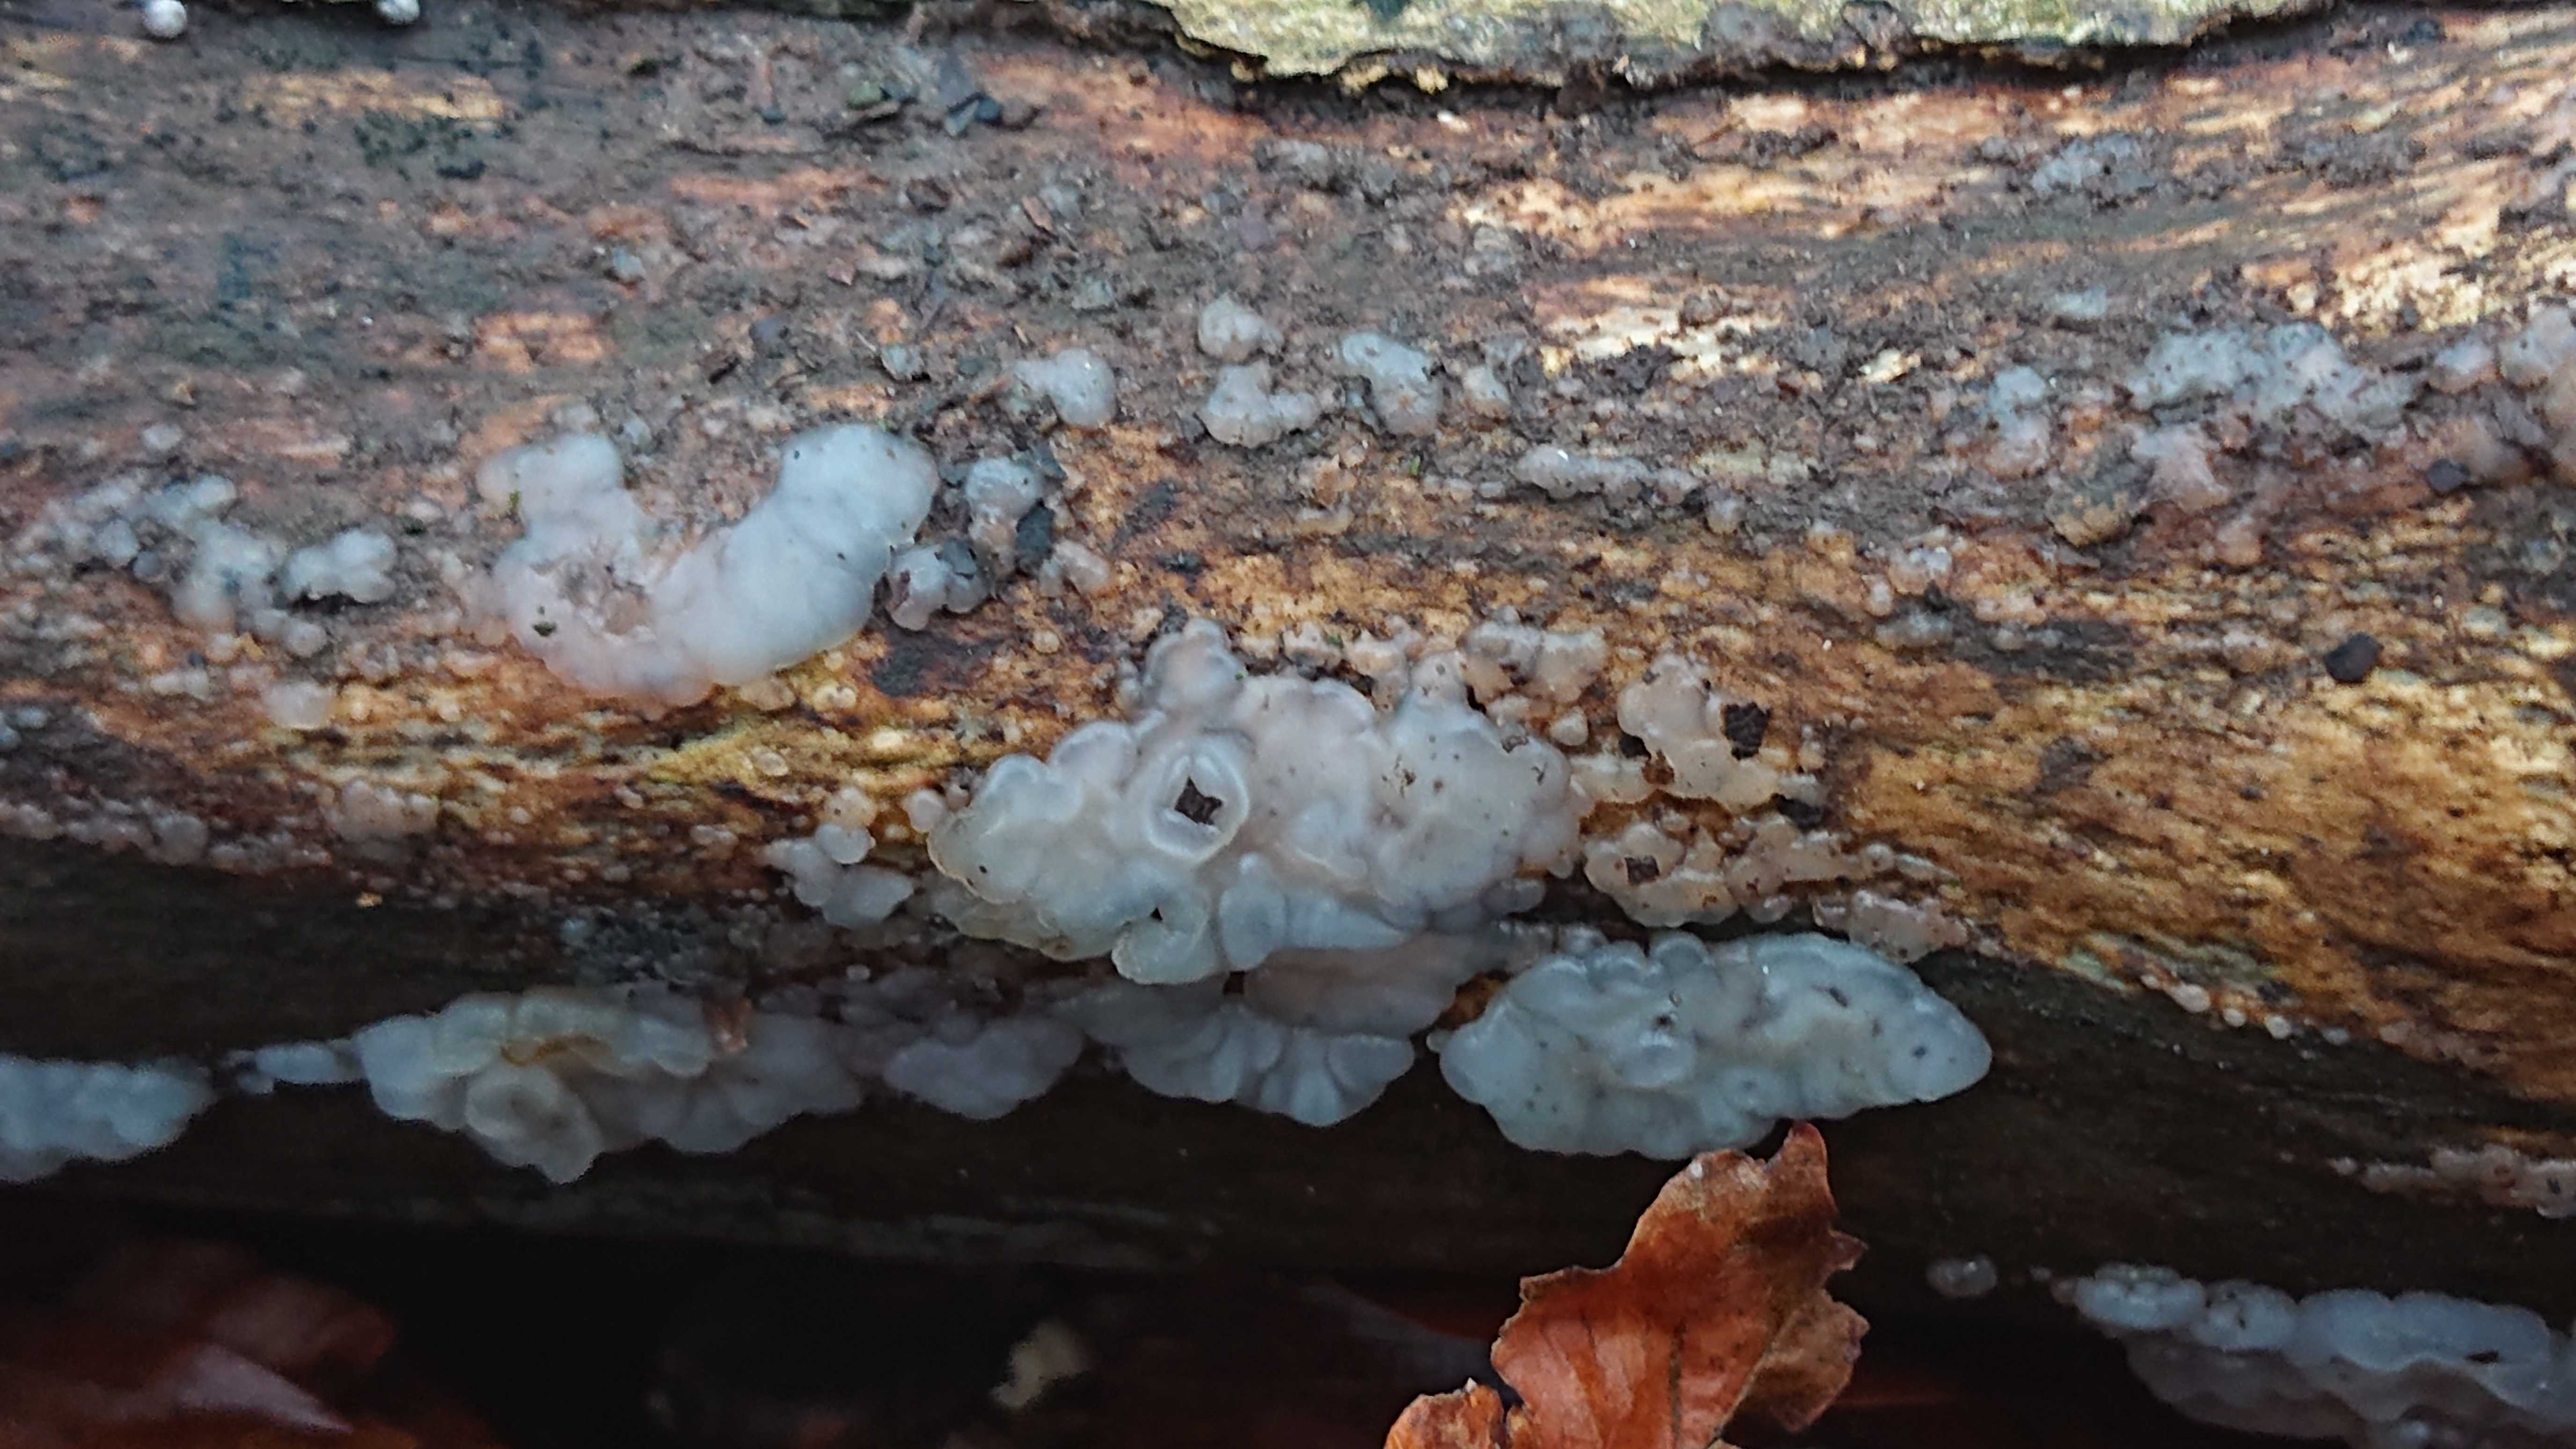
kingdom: Fungi
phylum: Basidiomycota
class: Agaricomycetes
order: Auriculariales
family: Hyaloriaceae
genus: Myxarium
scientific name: Myxarium nucleatum
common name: klar bævretop
